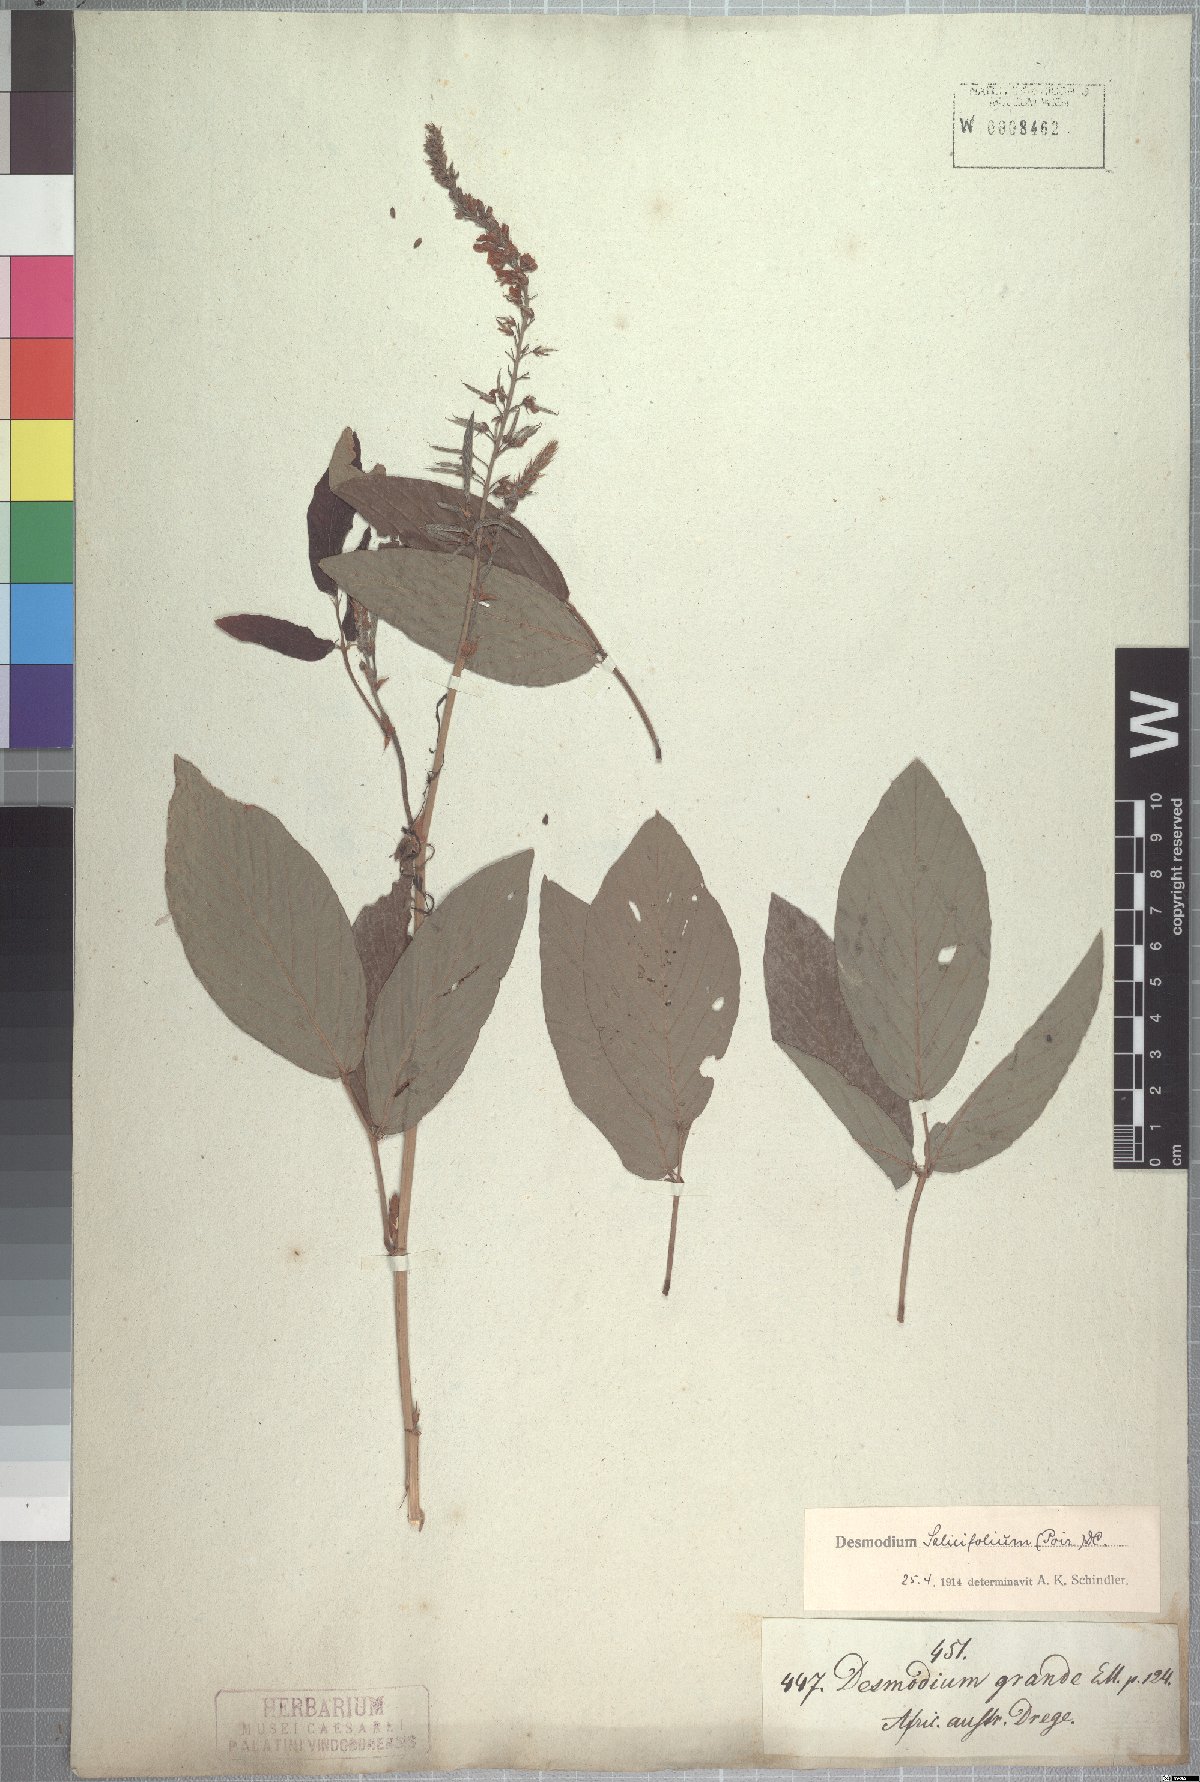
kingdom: Plantae
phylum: Tracheophyta
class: Magnoliopsida
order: Fabales
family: Fabaceae
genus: Pleurolobus
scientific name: Pleurolobus salicifolius
